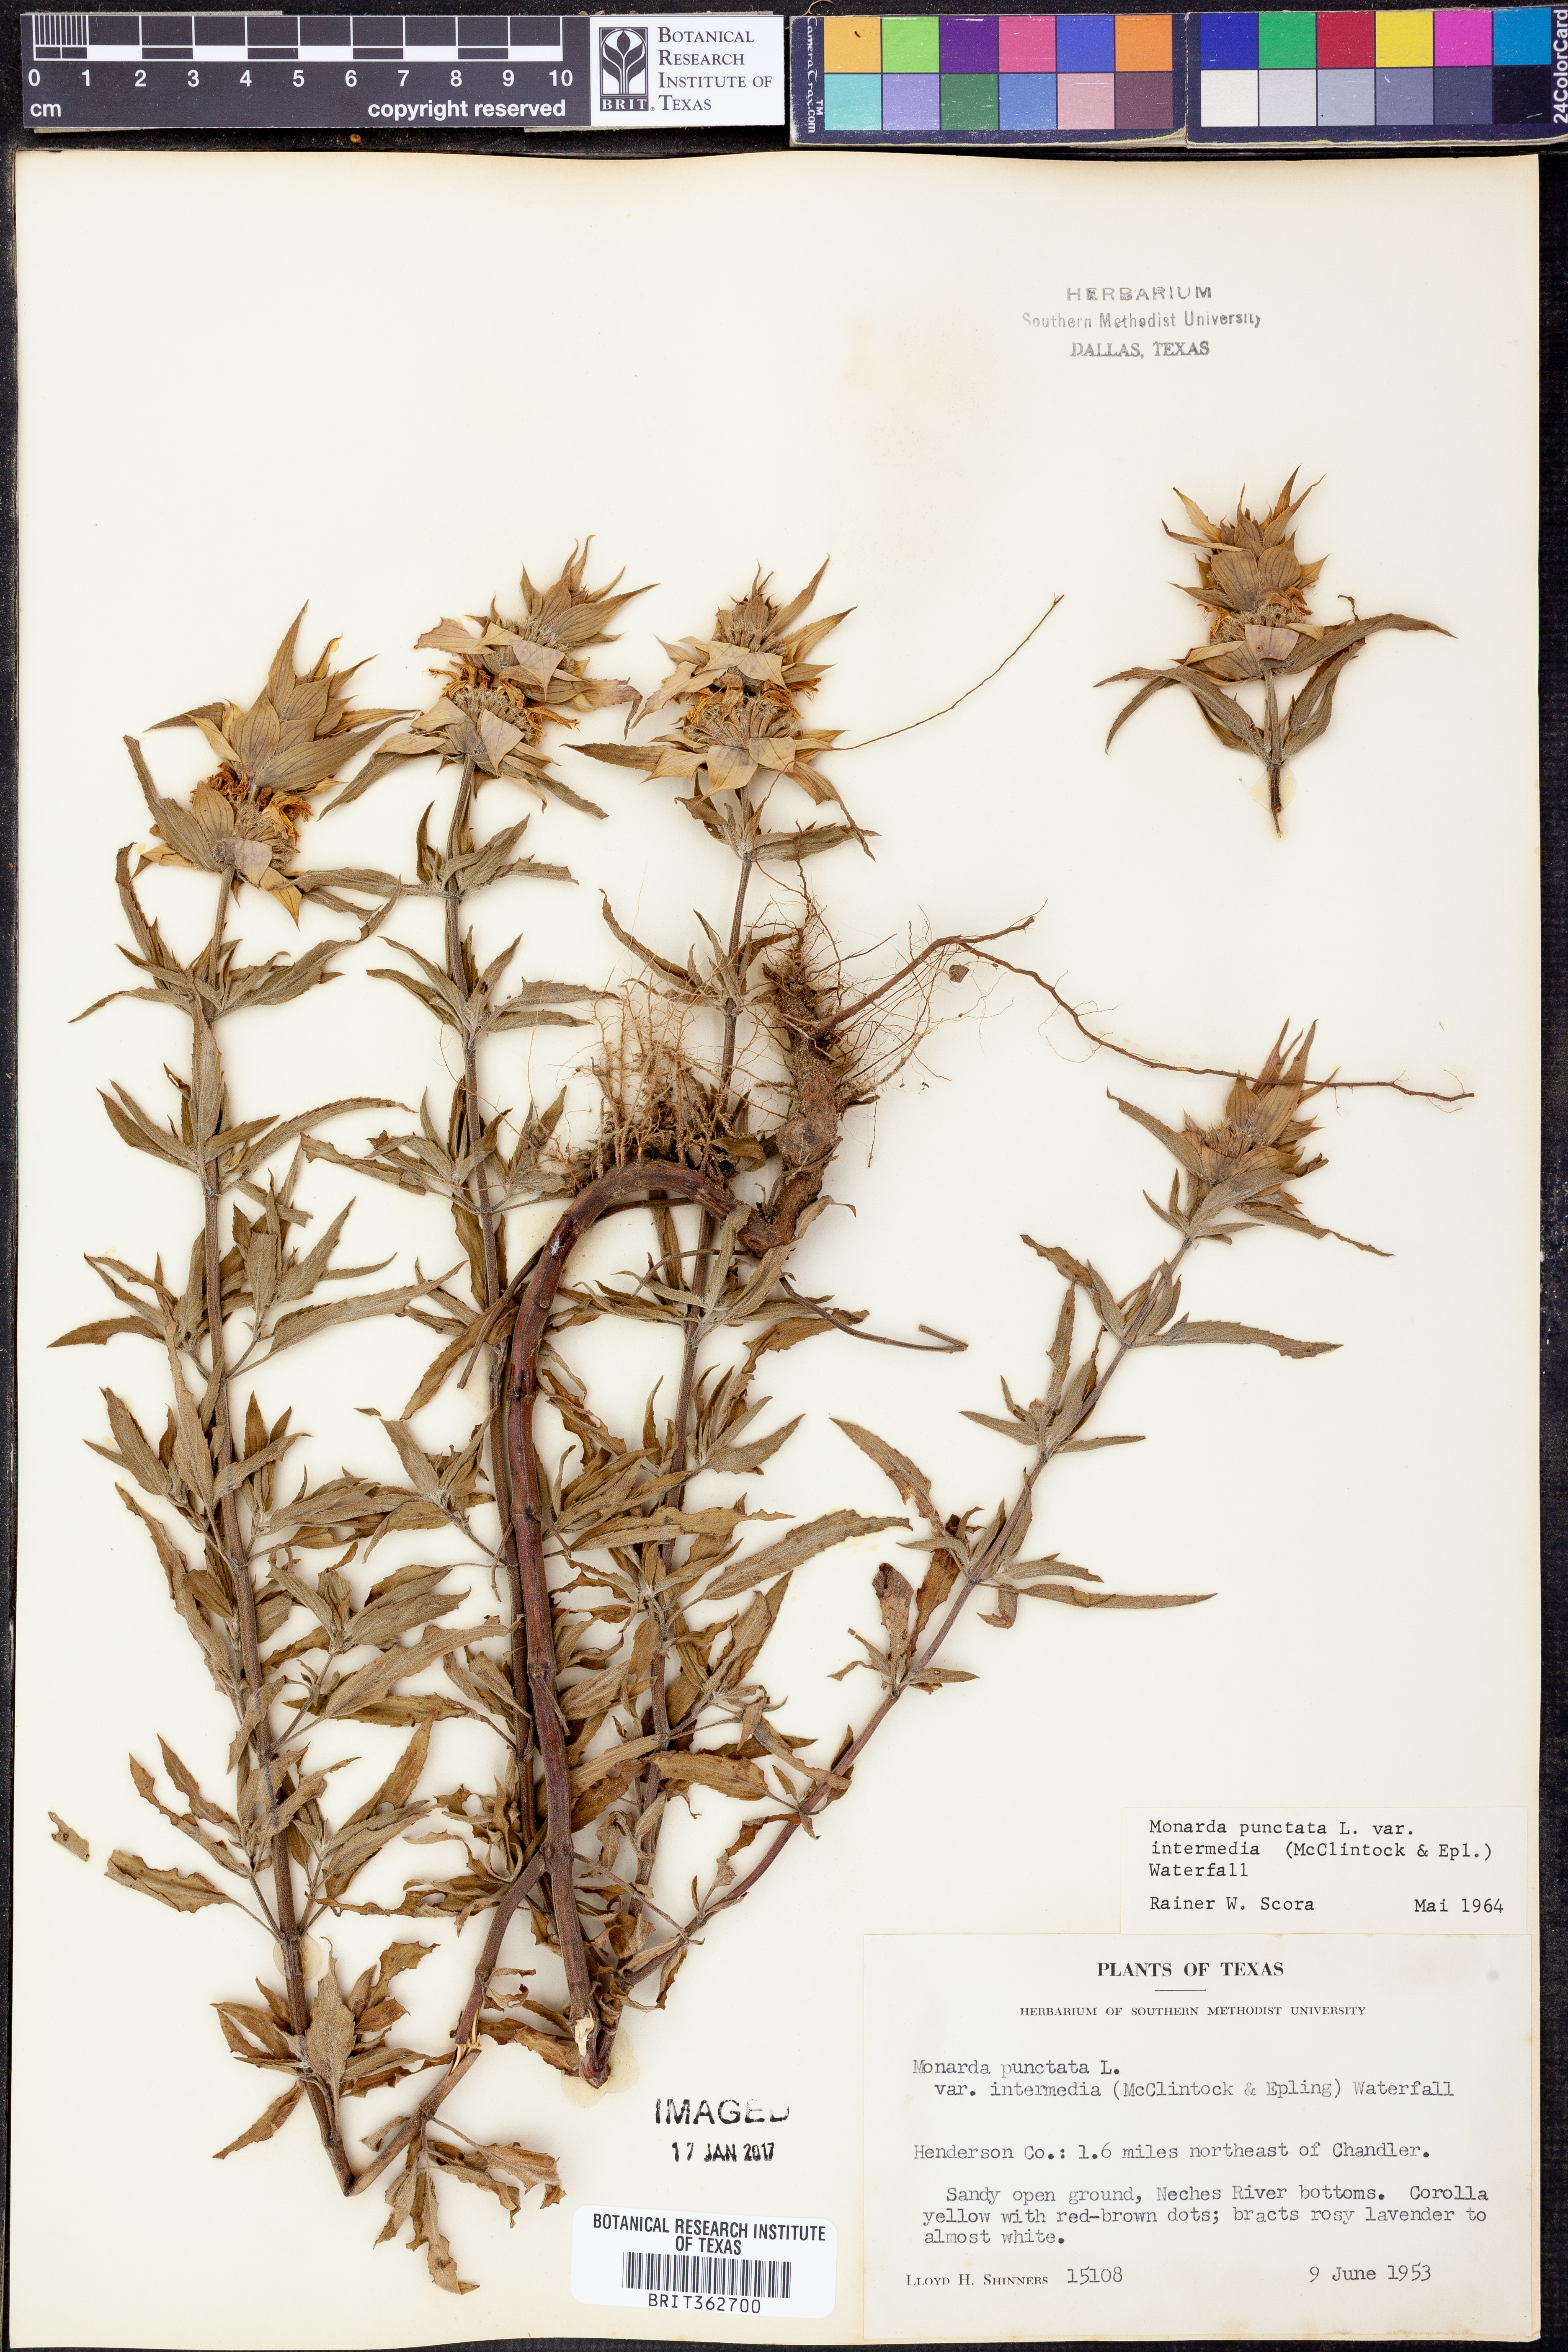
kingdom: Plantae
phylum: Tracheophyta
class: Magnoliopsida
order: Lamiales
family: Lamiaceae
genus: Monarda
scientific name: Monarda punctata
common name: Dotted monarda
